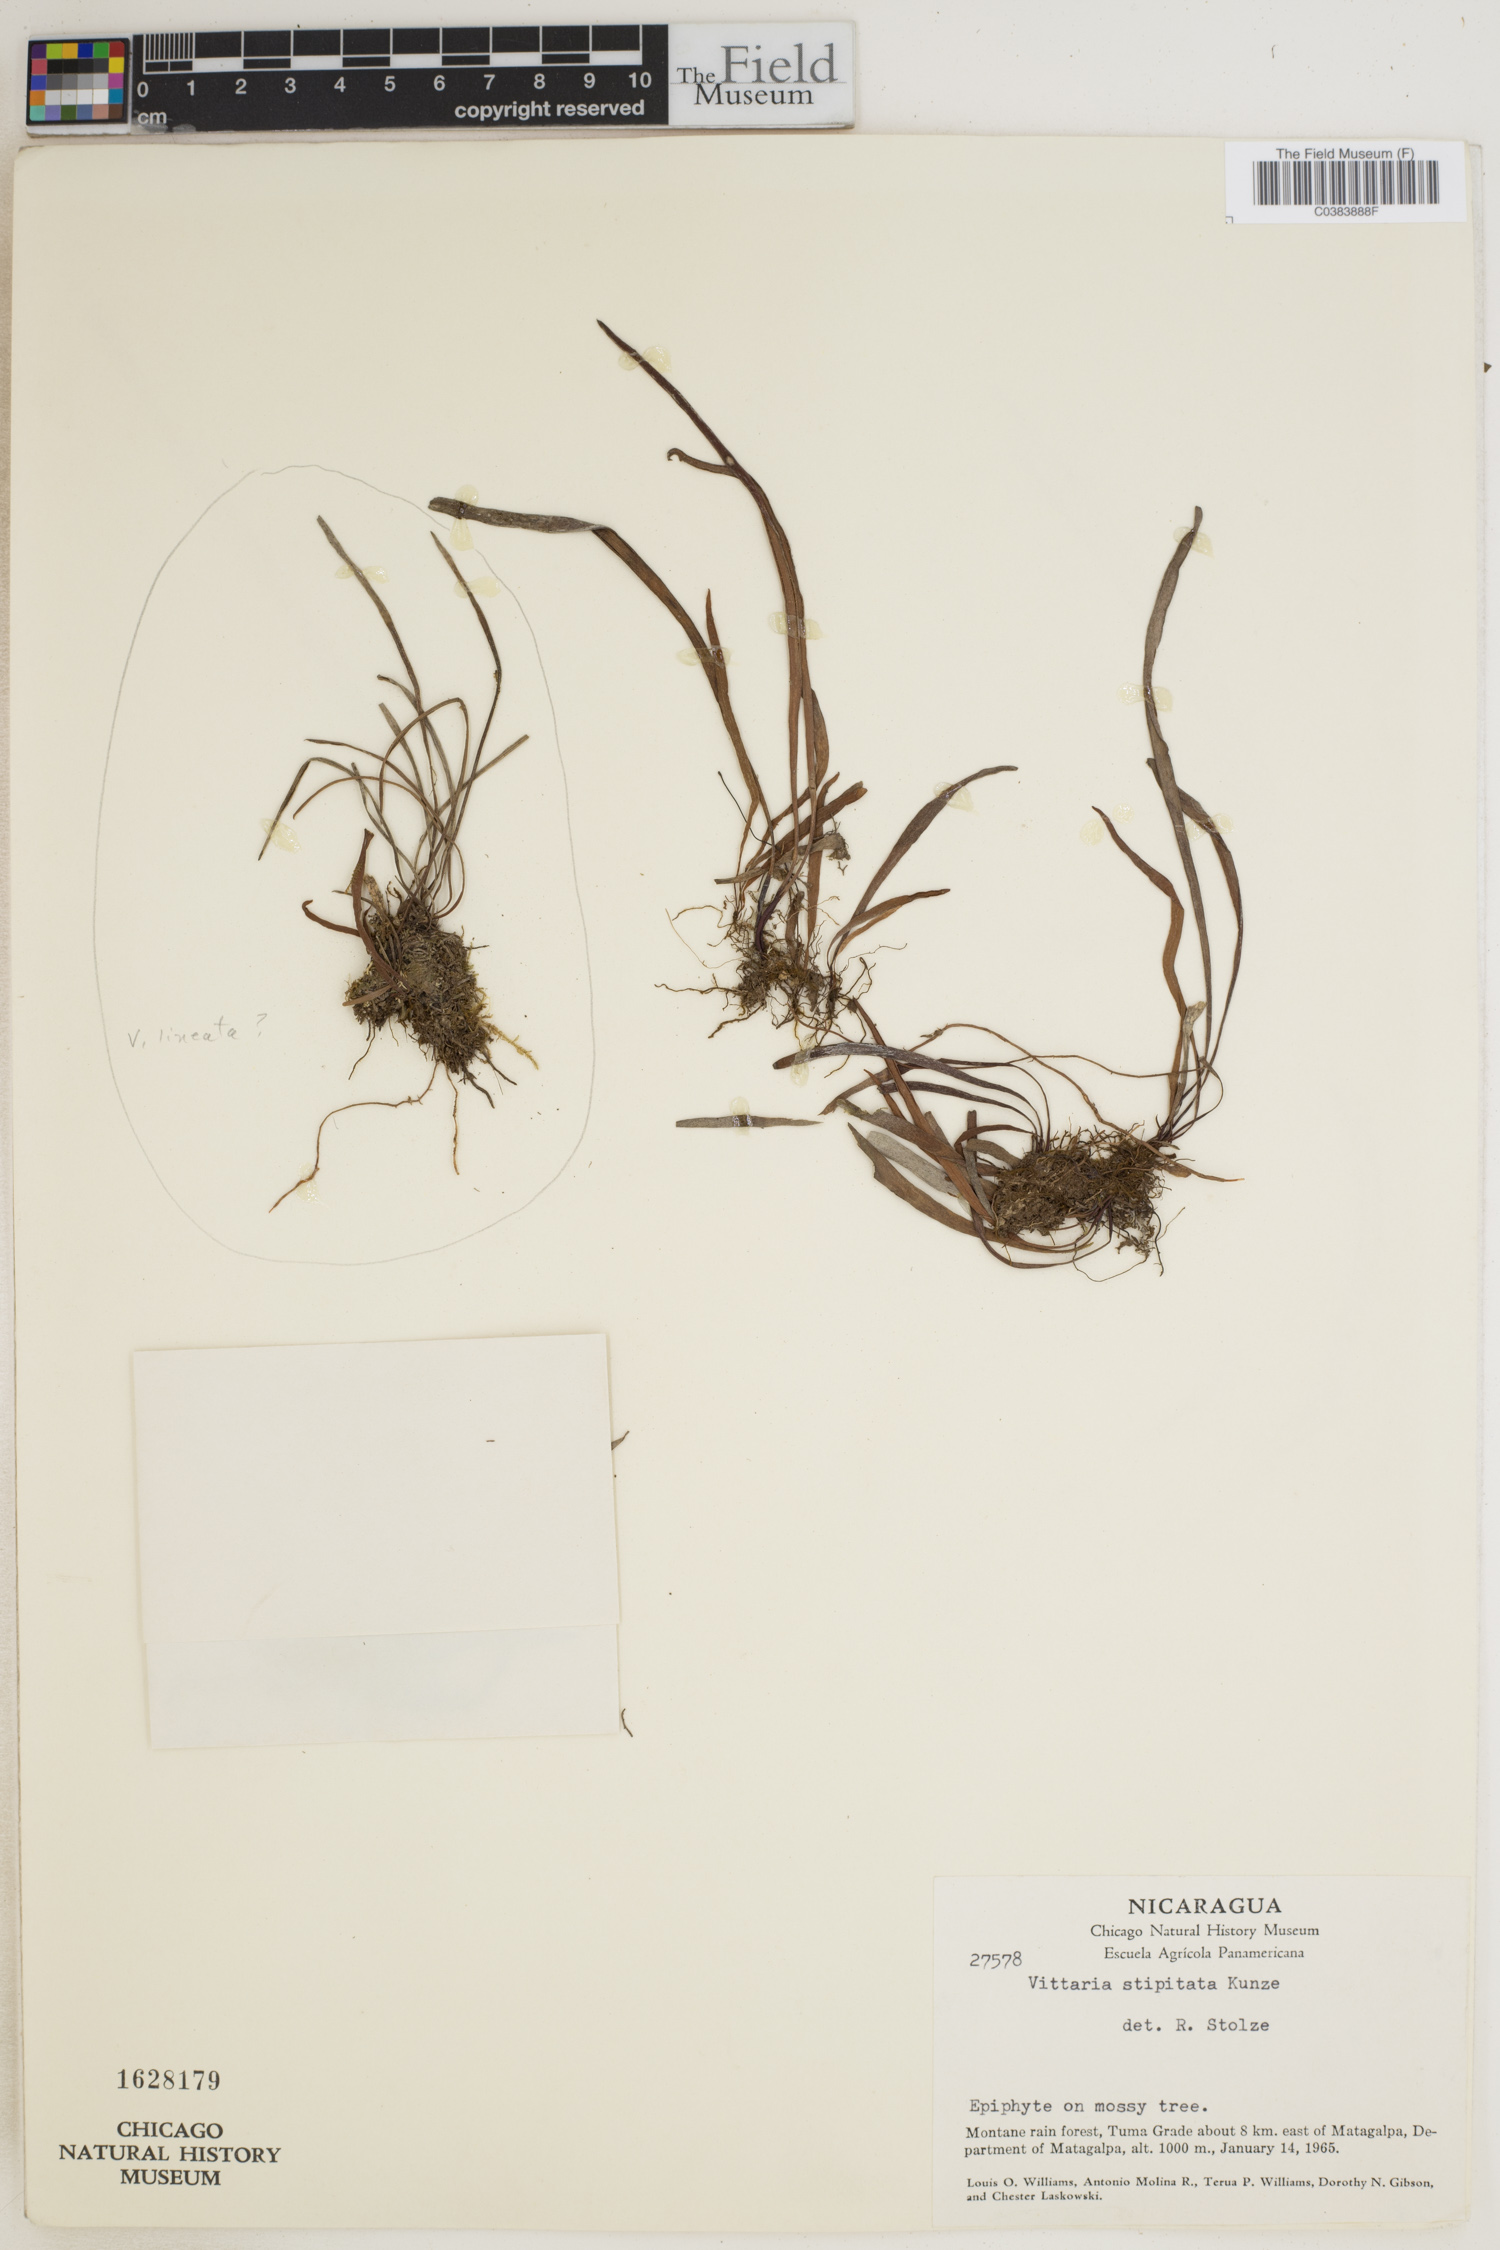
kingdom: Plantae
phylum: Tracheophyta
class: Polypodiopsida
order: Polypodiales
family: Pteridaceae
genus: Radiovittaria
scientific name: Radiovittaria stipitata
